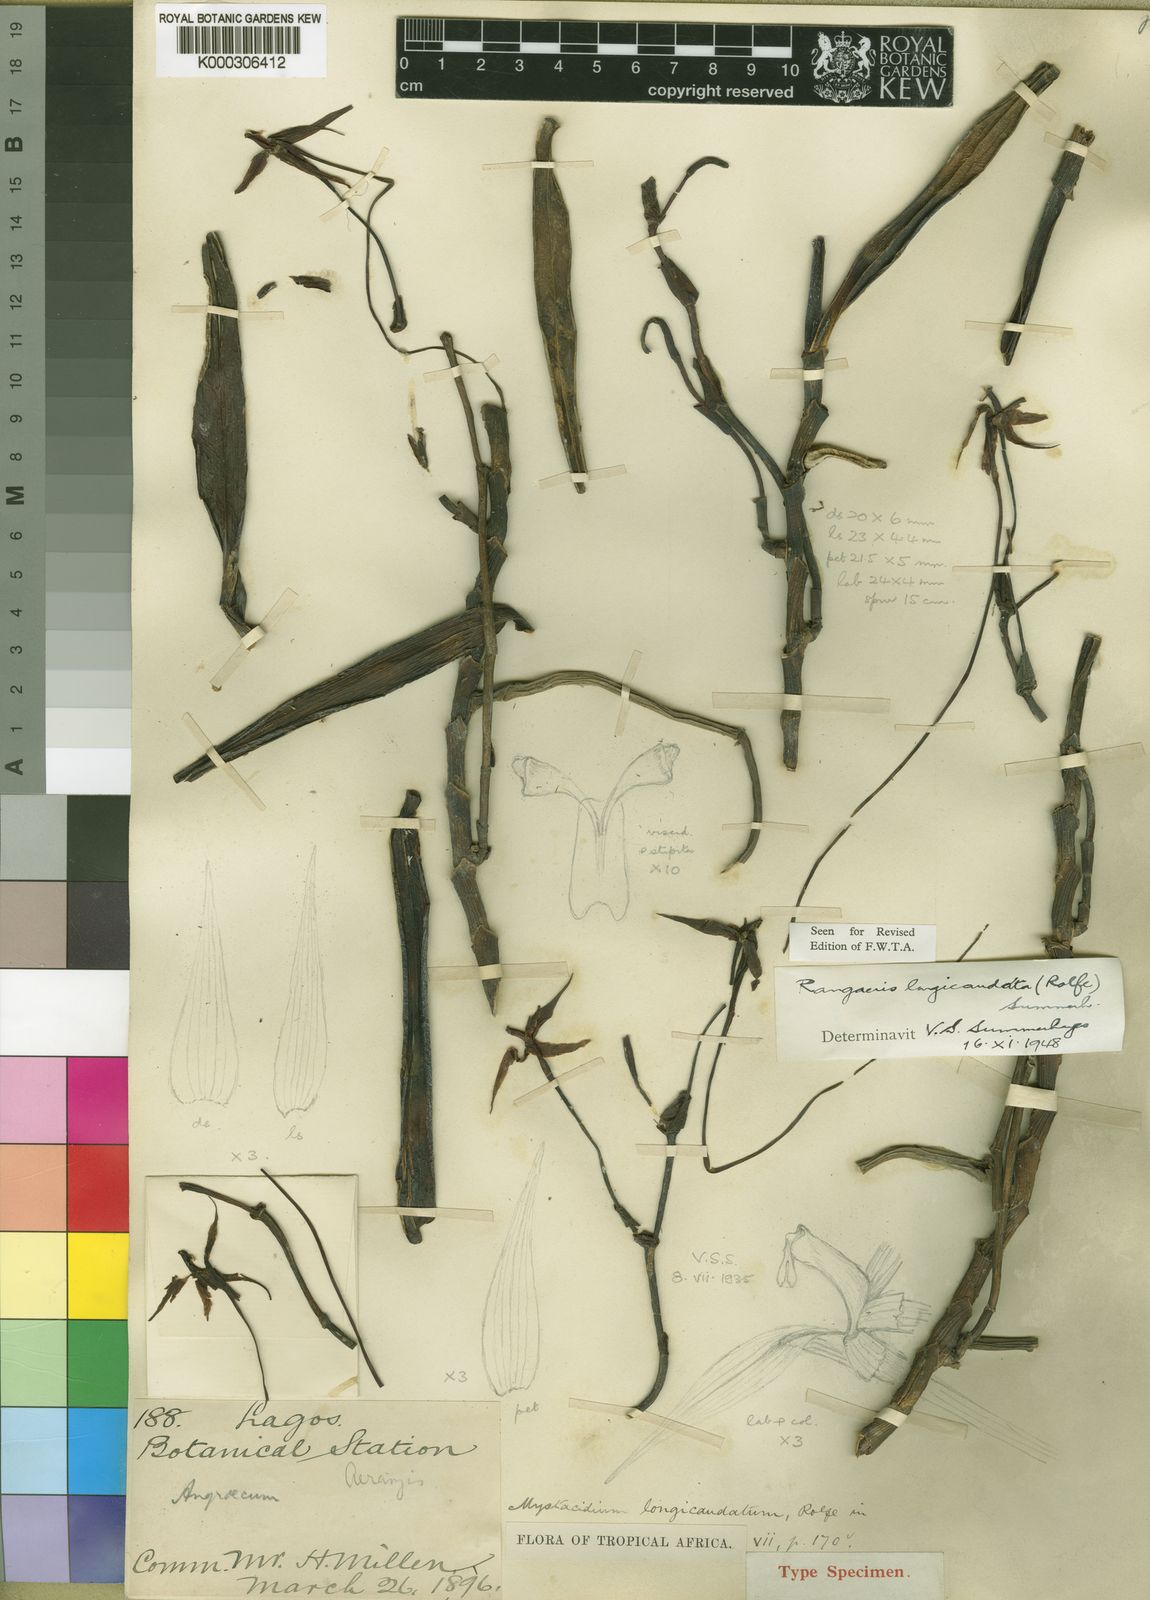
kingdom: Plantae
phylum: Tracheophyta
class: Liliopsida
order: Asparagales
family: Orchidaceae
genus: Rangaeris
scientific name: Rangaeris longicaudata
